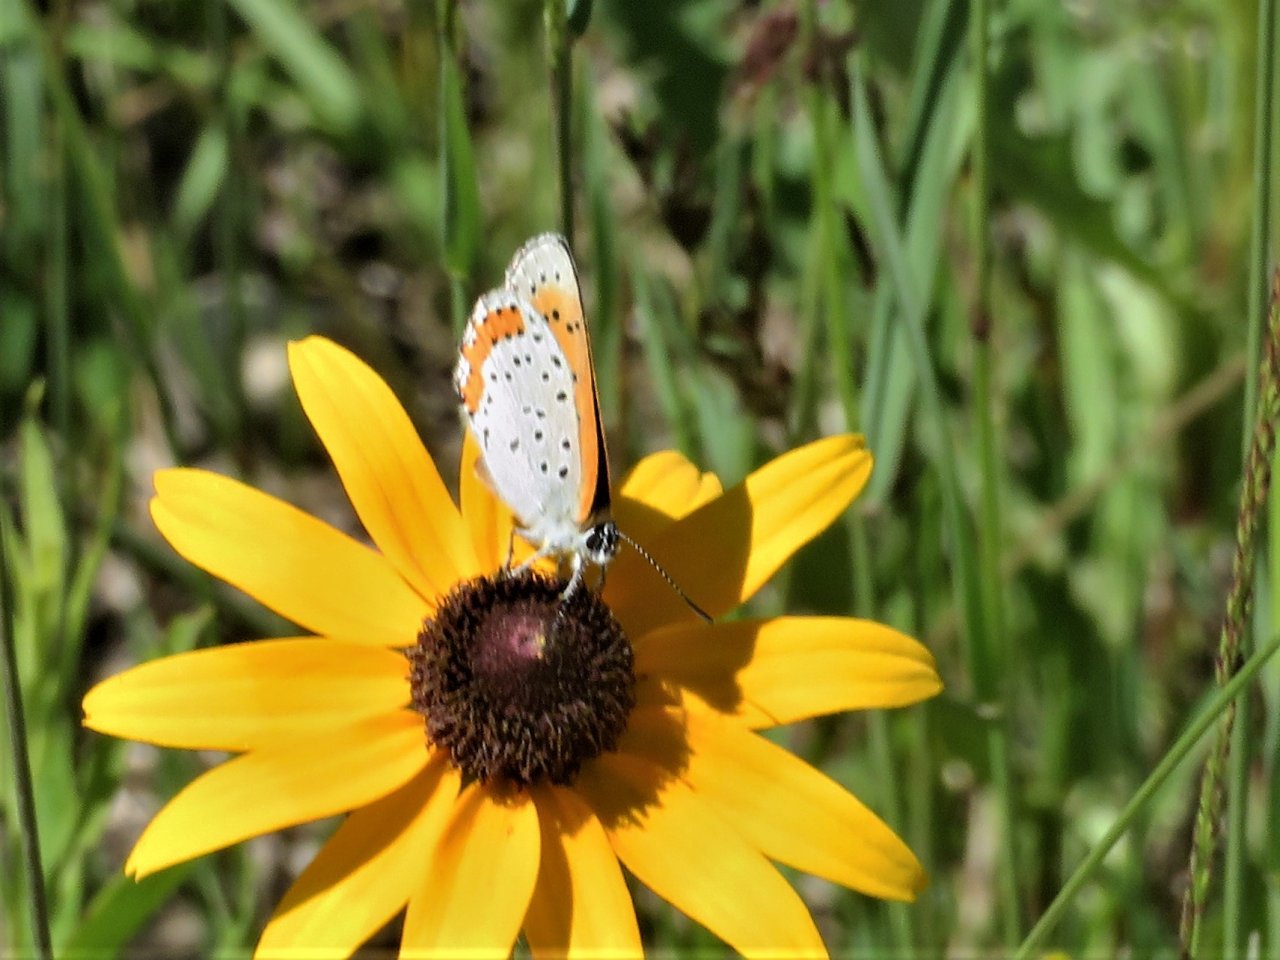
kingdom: Animalia
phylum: Arthropoda
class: Insecta
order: Lepidoptera
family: Sesiidae
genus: Sesia
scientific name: Sesia Lycaena hyllus
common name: Bronze Copper
